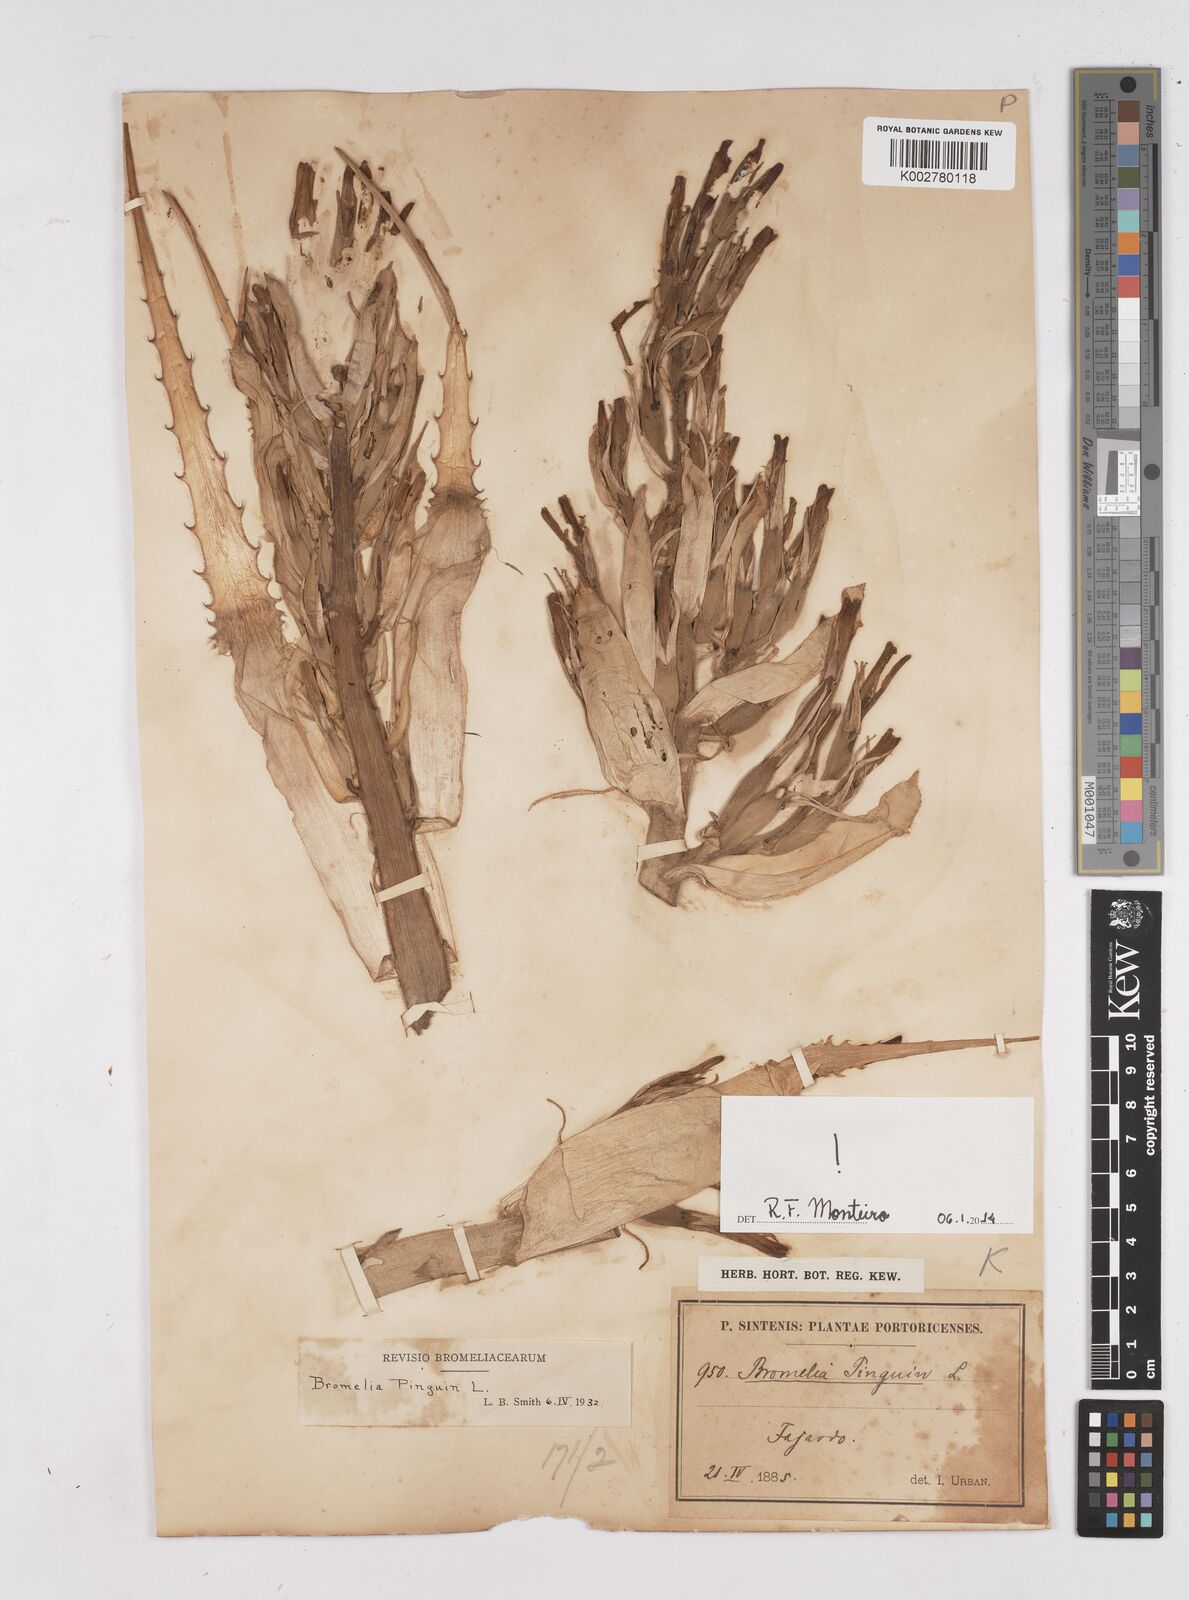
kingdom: Plantae
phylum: Tracheophyta
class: Liliopsida
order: Poales
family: Bromeliaceae
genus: Bromelia
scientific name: Bromelia pinguin
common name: Pinguin
